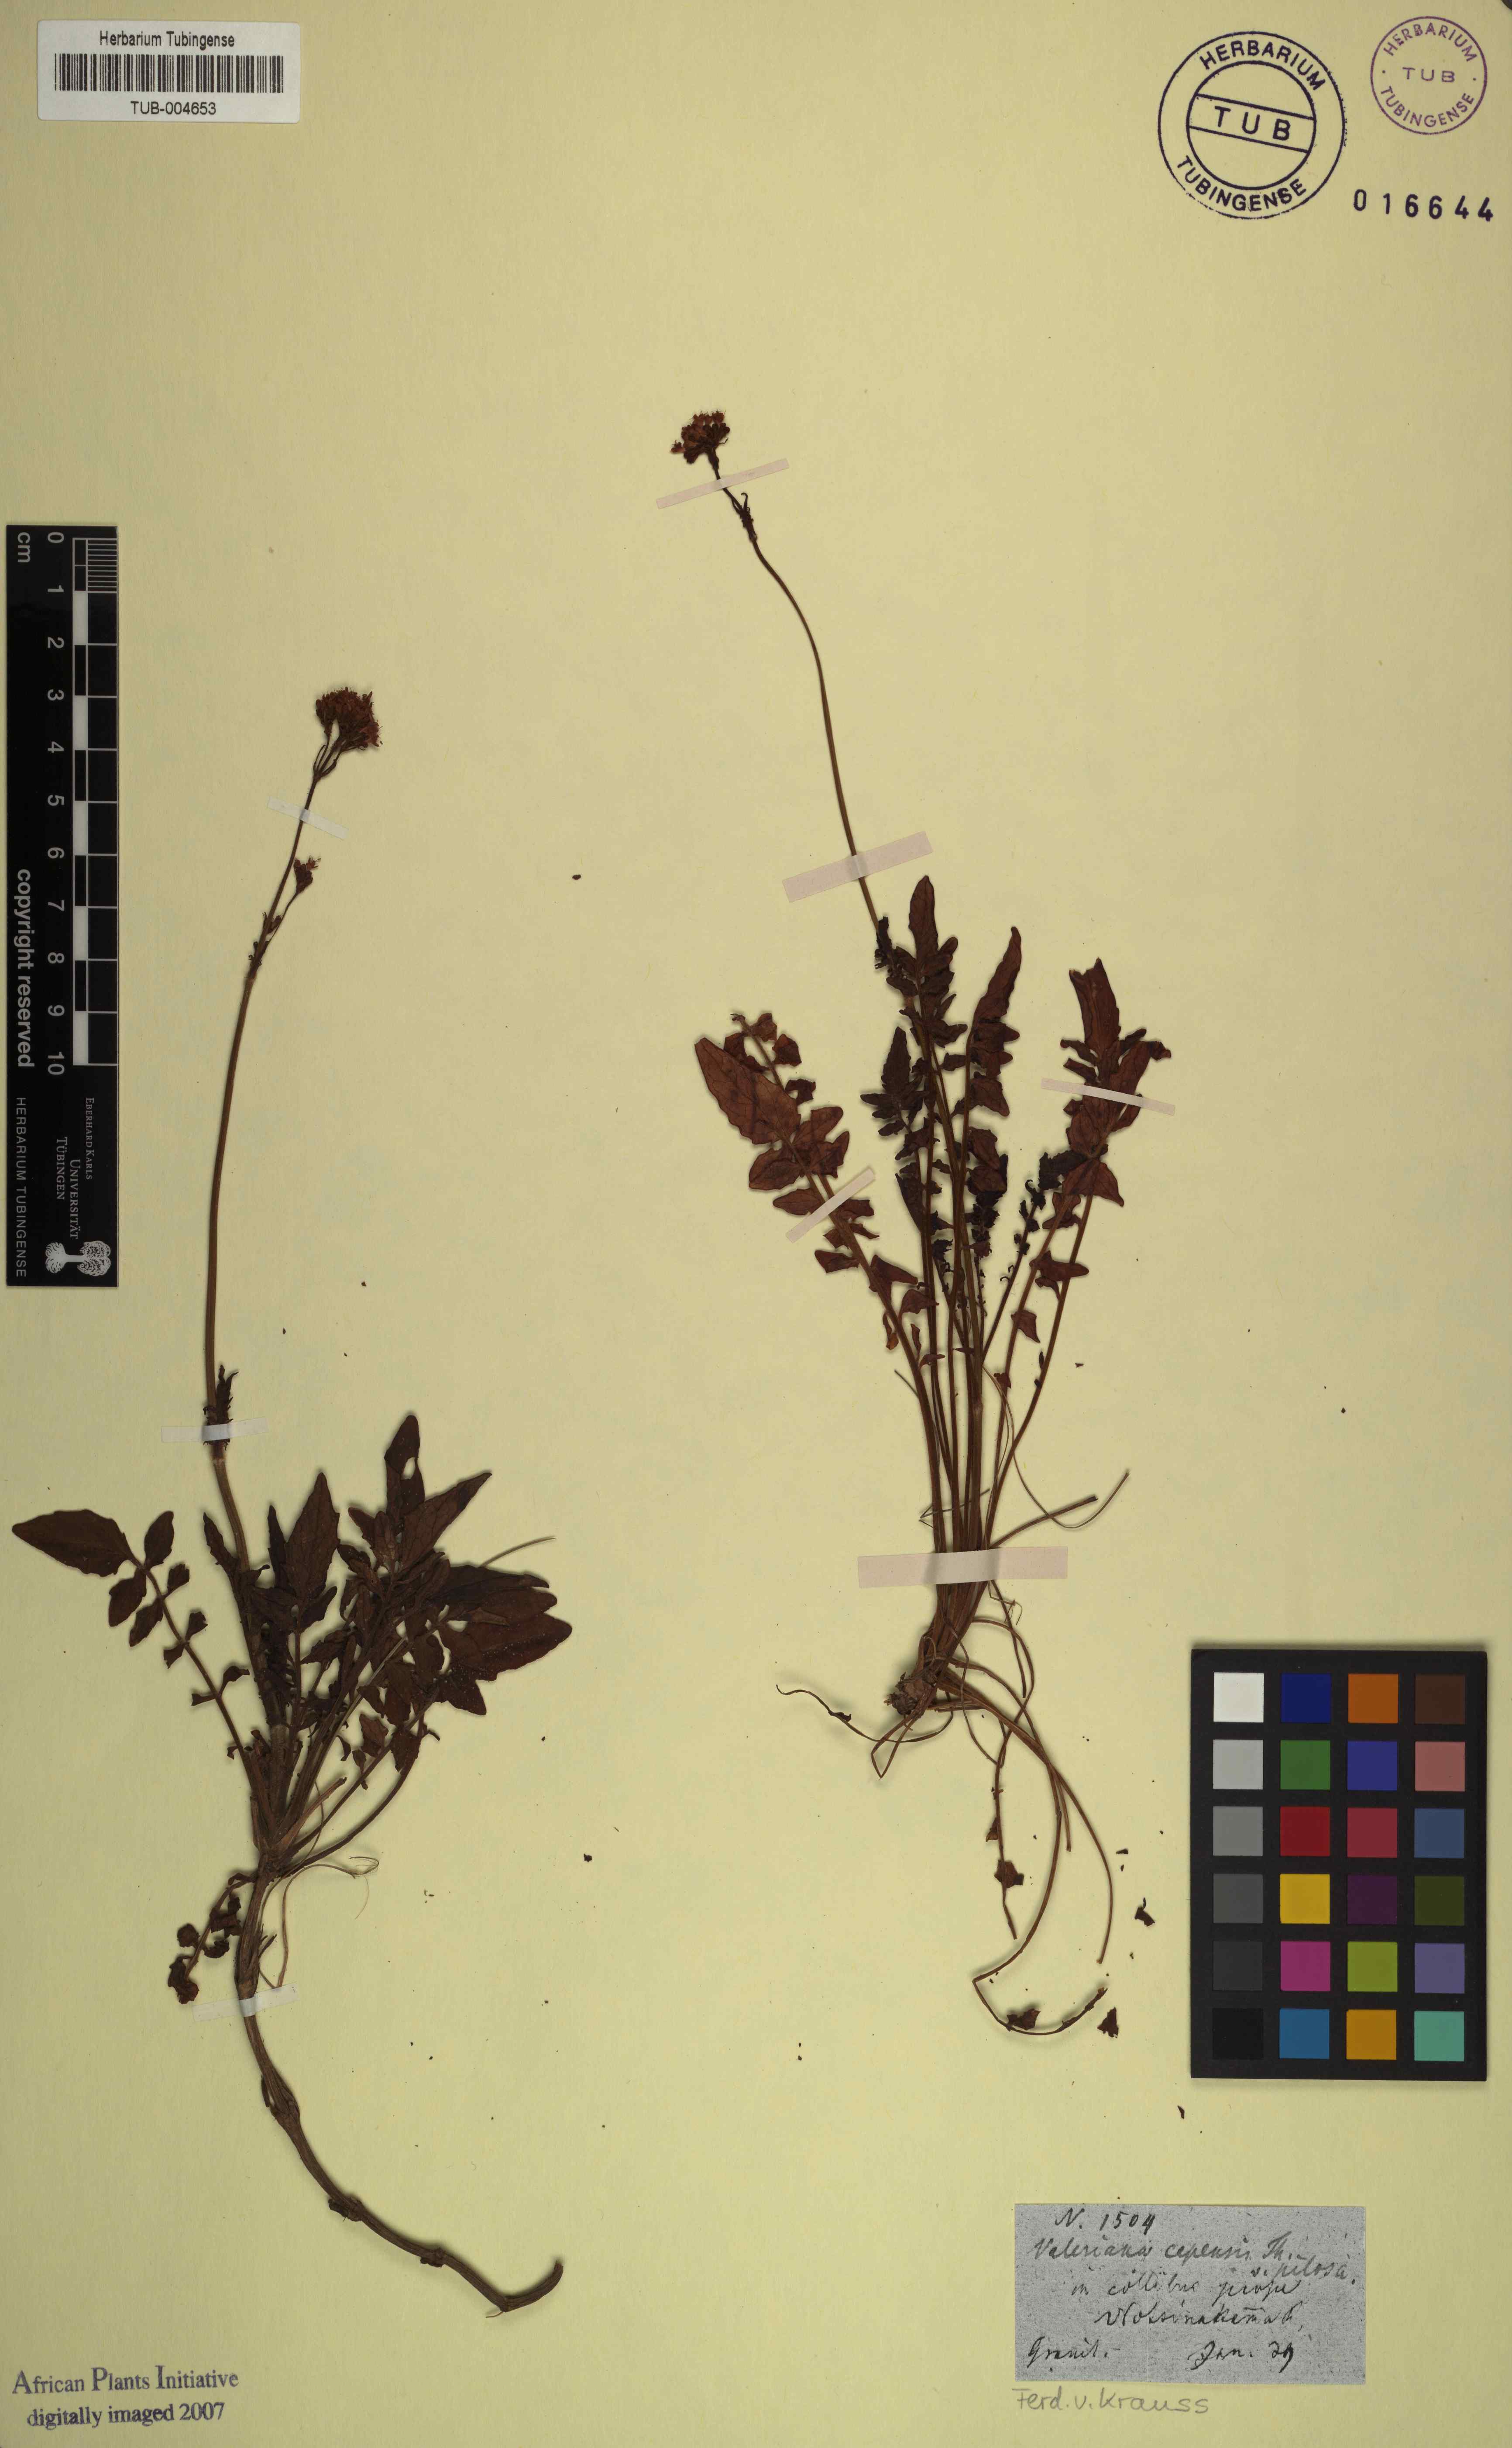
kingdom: Plantae
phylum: Tracheophyta
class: Magnoliopsida
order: Dipsacales
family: Caprifoliaceae
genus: Valeriana
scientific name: Valeriana capensis
